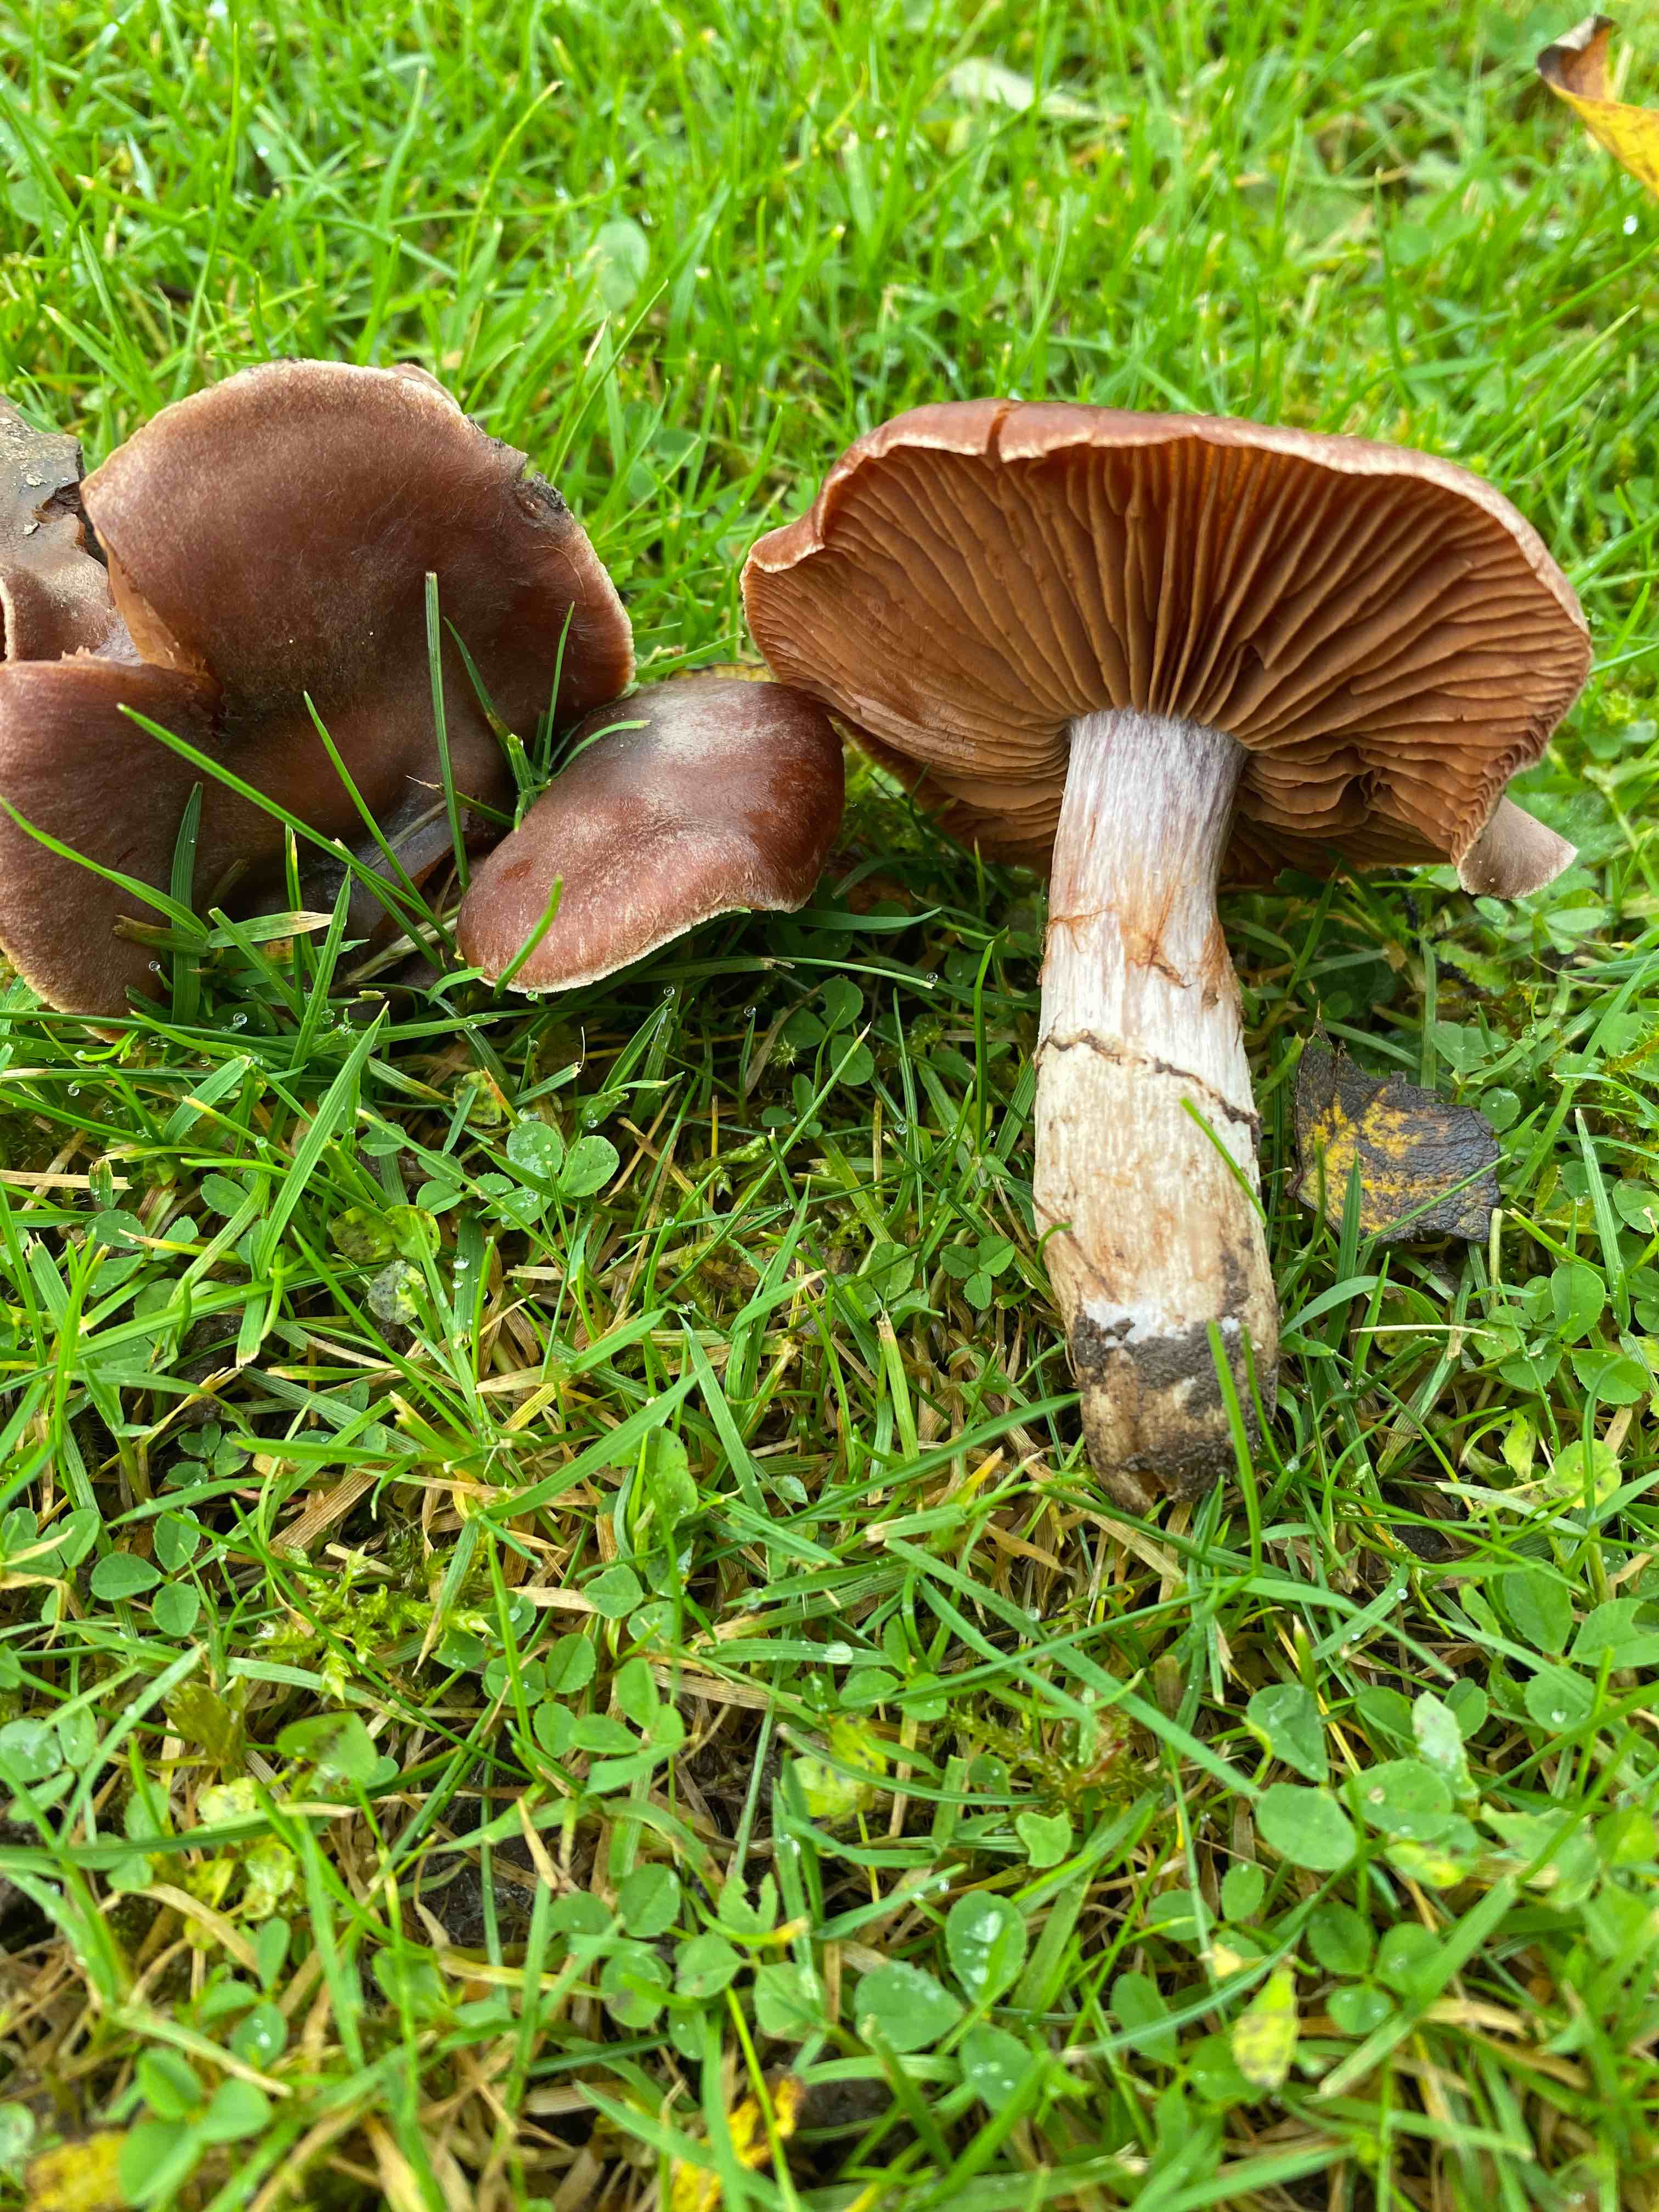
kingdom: Fungi
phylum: Basidiomycota
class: Agaricomycetes
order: Agaricales
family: Cortinariaceae
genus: Cortinarius
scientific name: Cortinarius saturninus
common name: brunviolet slørhat
